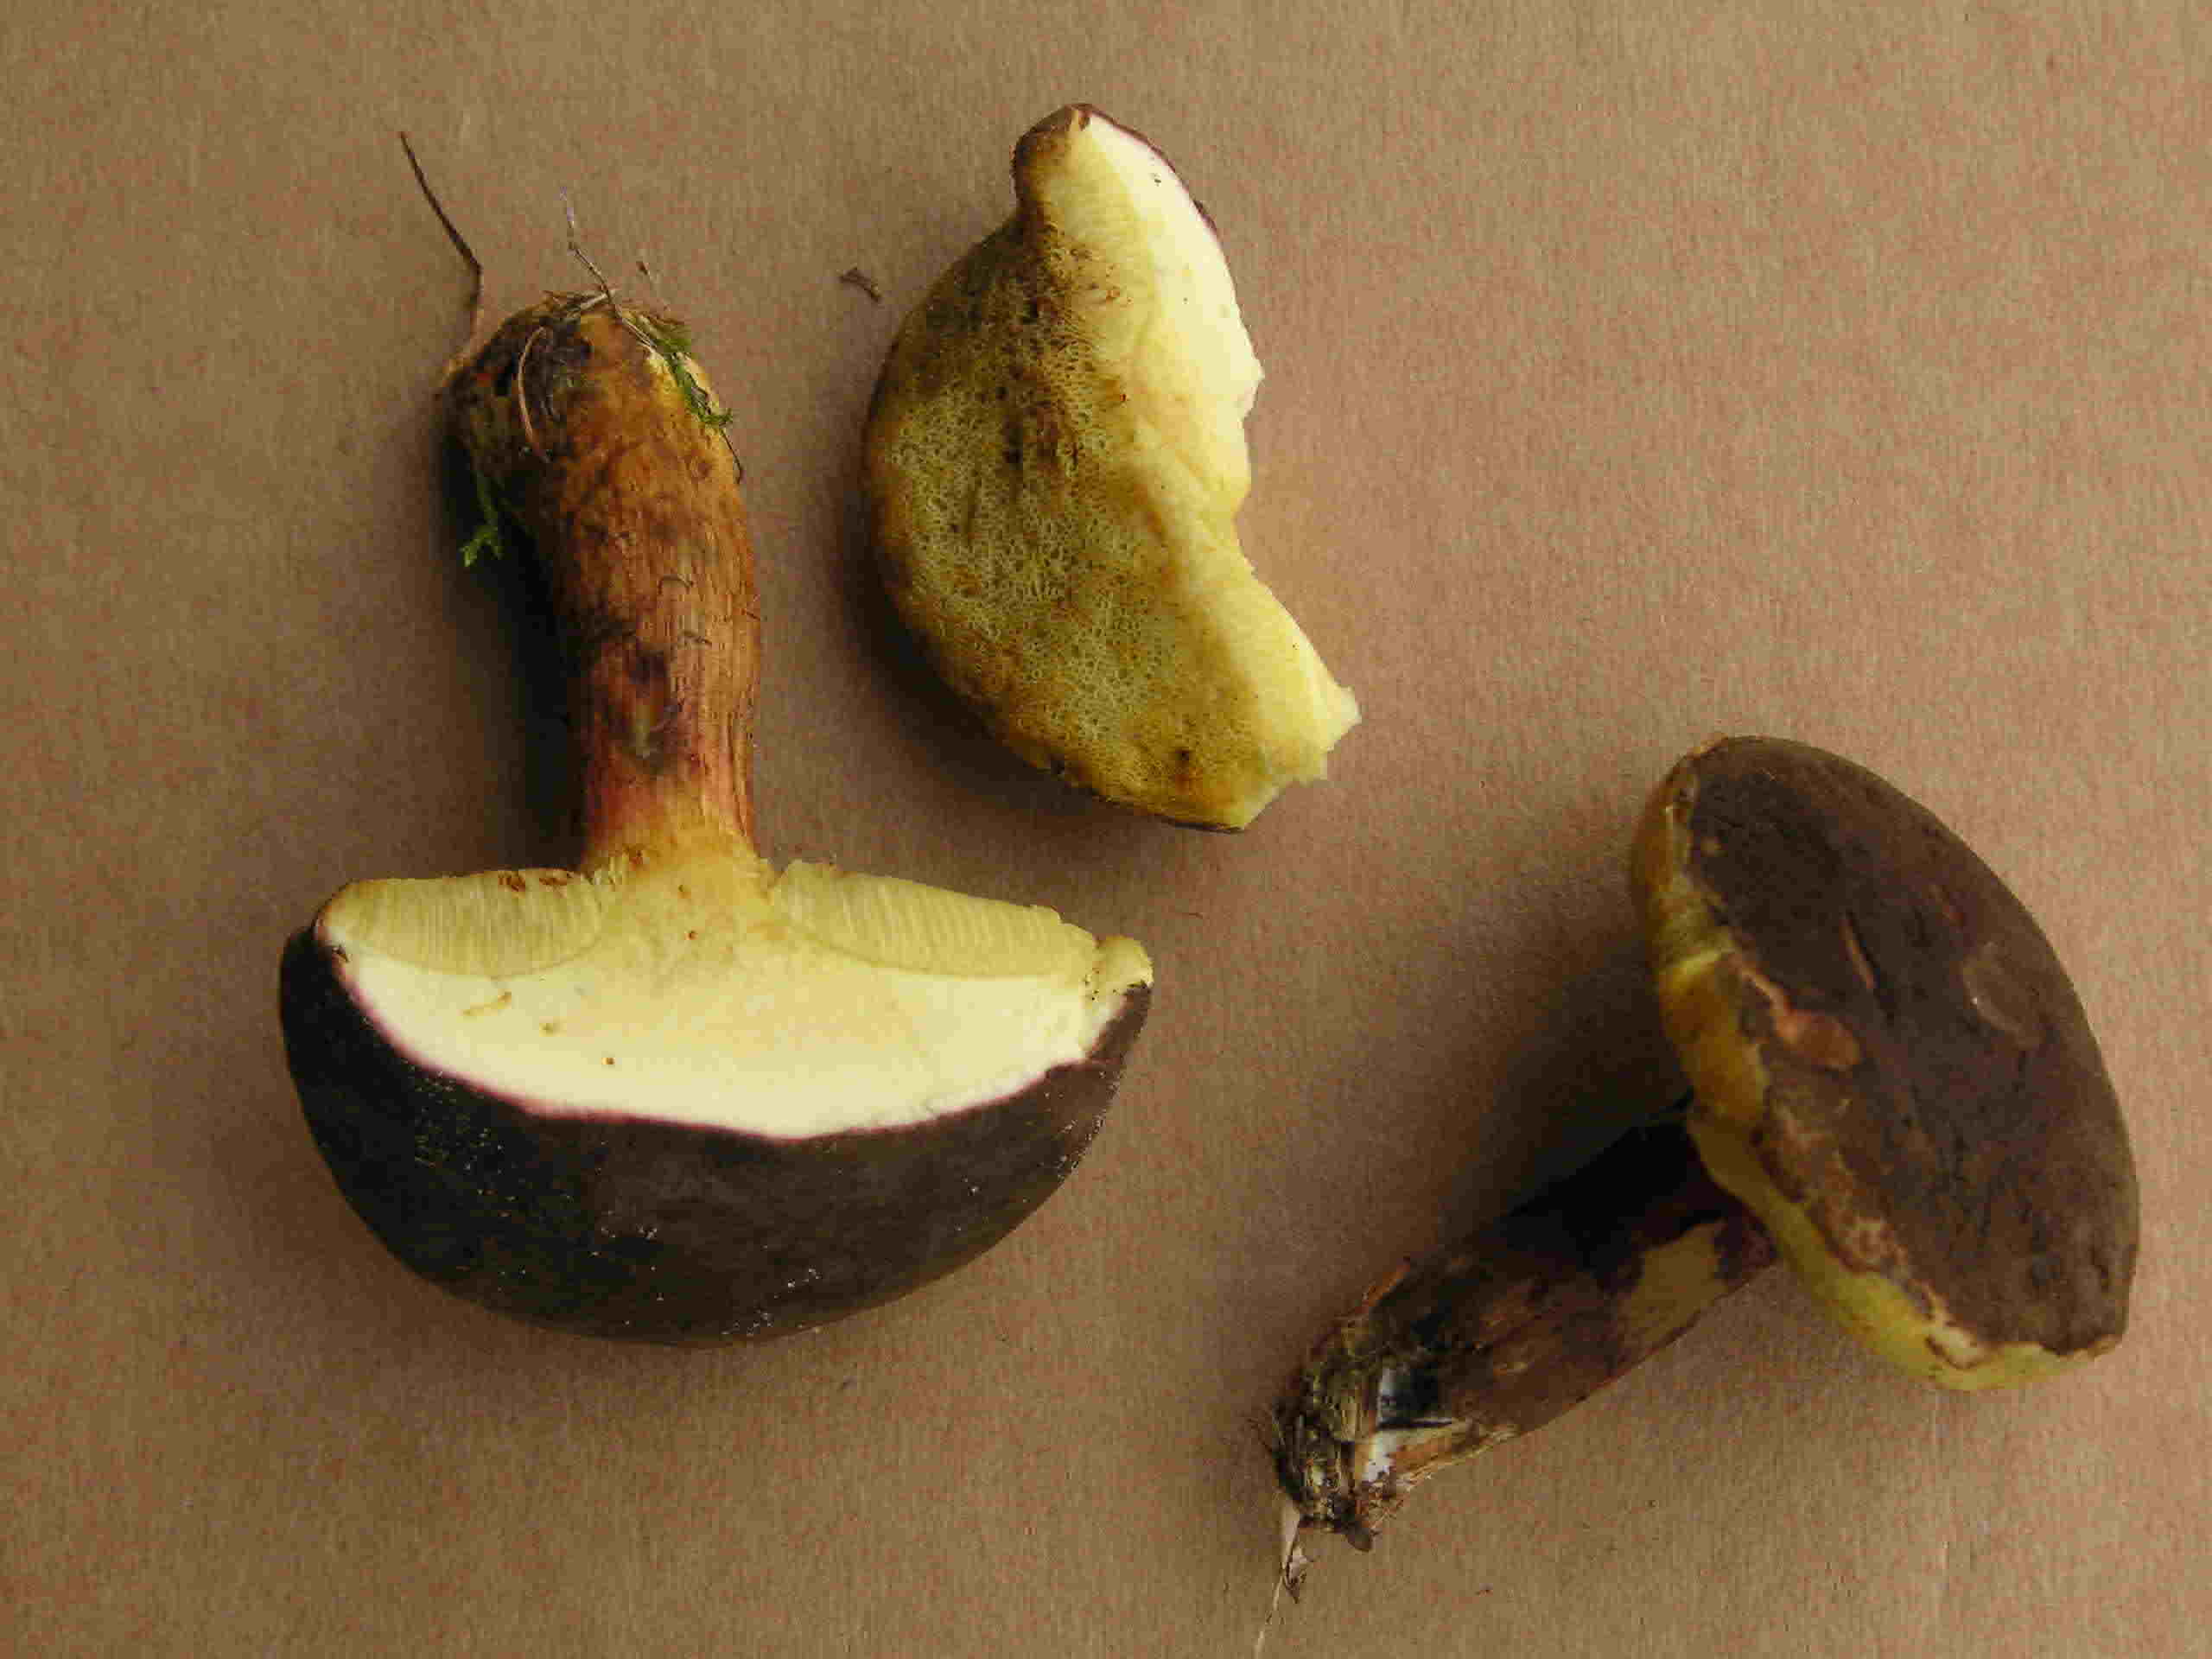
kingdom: Fungi
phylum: Basidiomycota
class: Agaricomycetes
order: Boletales
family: Boletaceae
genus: Xerocomellus
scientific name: Xerocomellus pruinatus
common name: dugget rørhat
